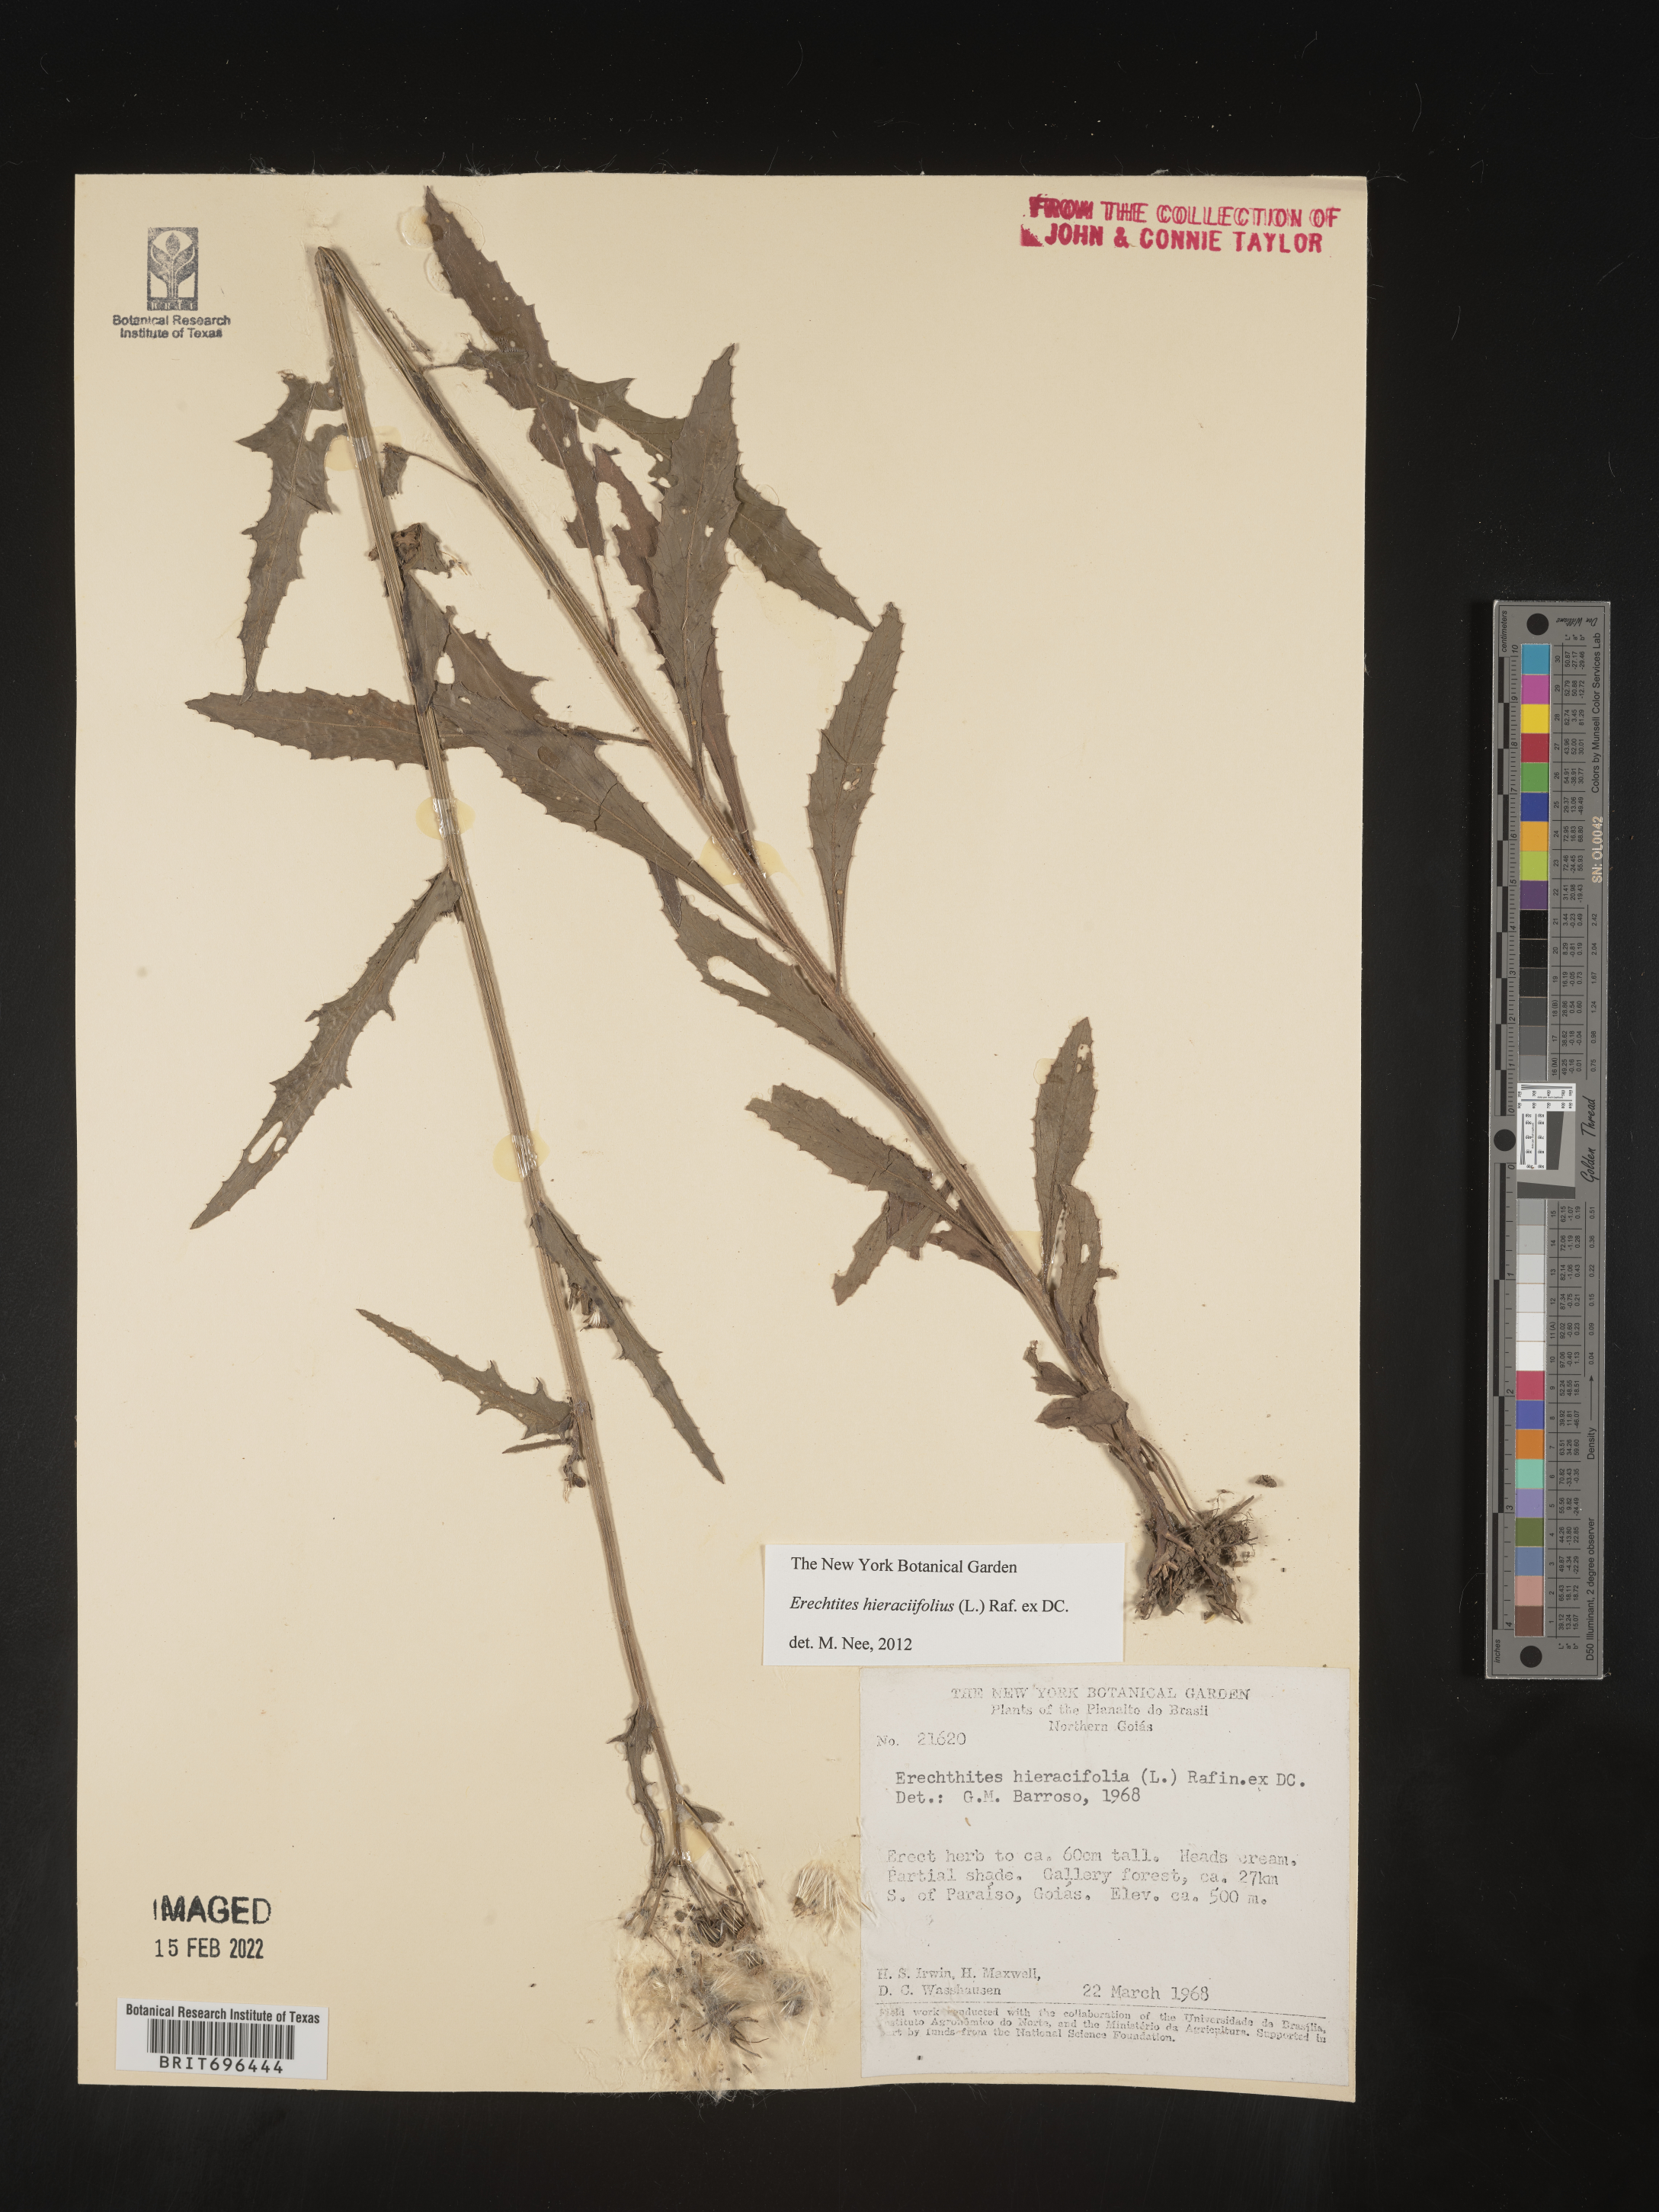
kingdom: Plantae
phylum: Tracheophyta
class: Magnoliopsida
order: Asterales
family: Asteraceae
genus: Erechtites
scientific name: Erechtites
